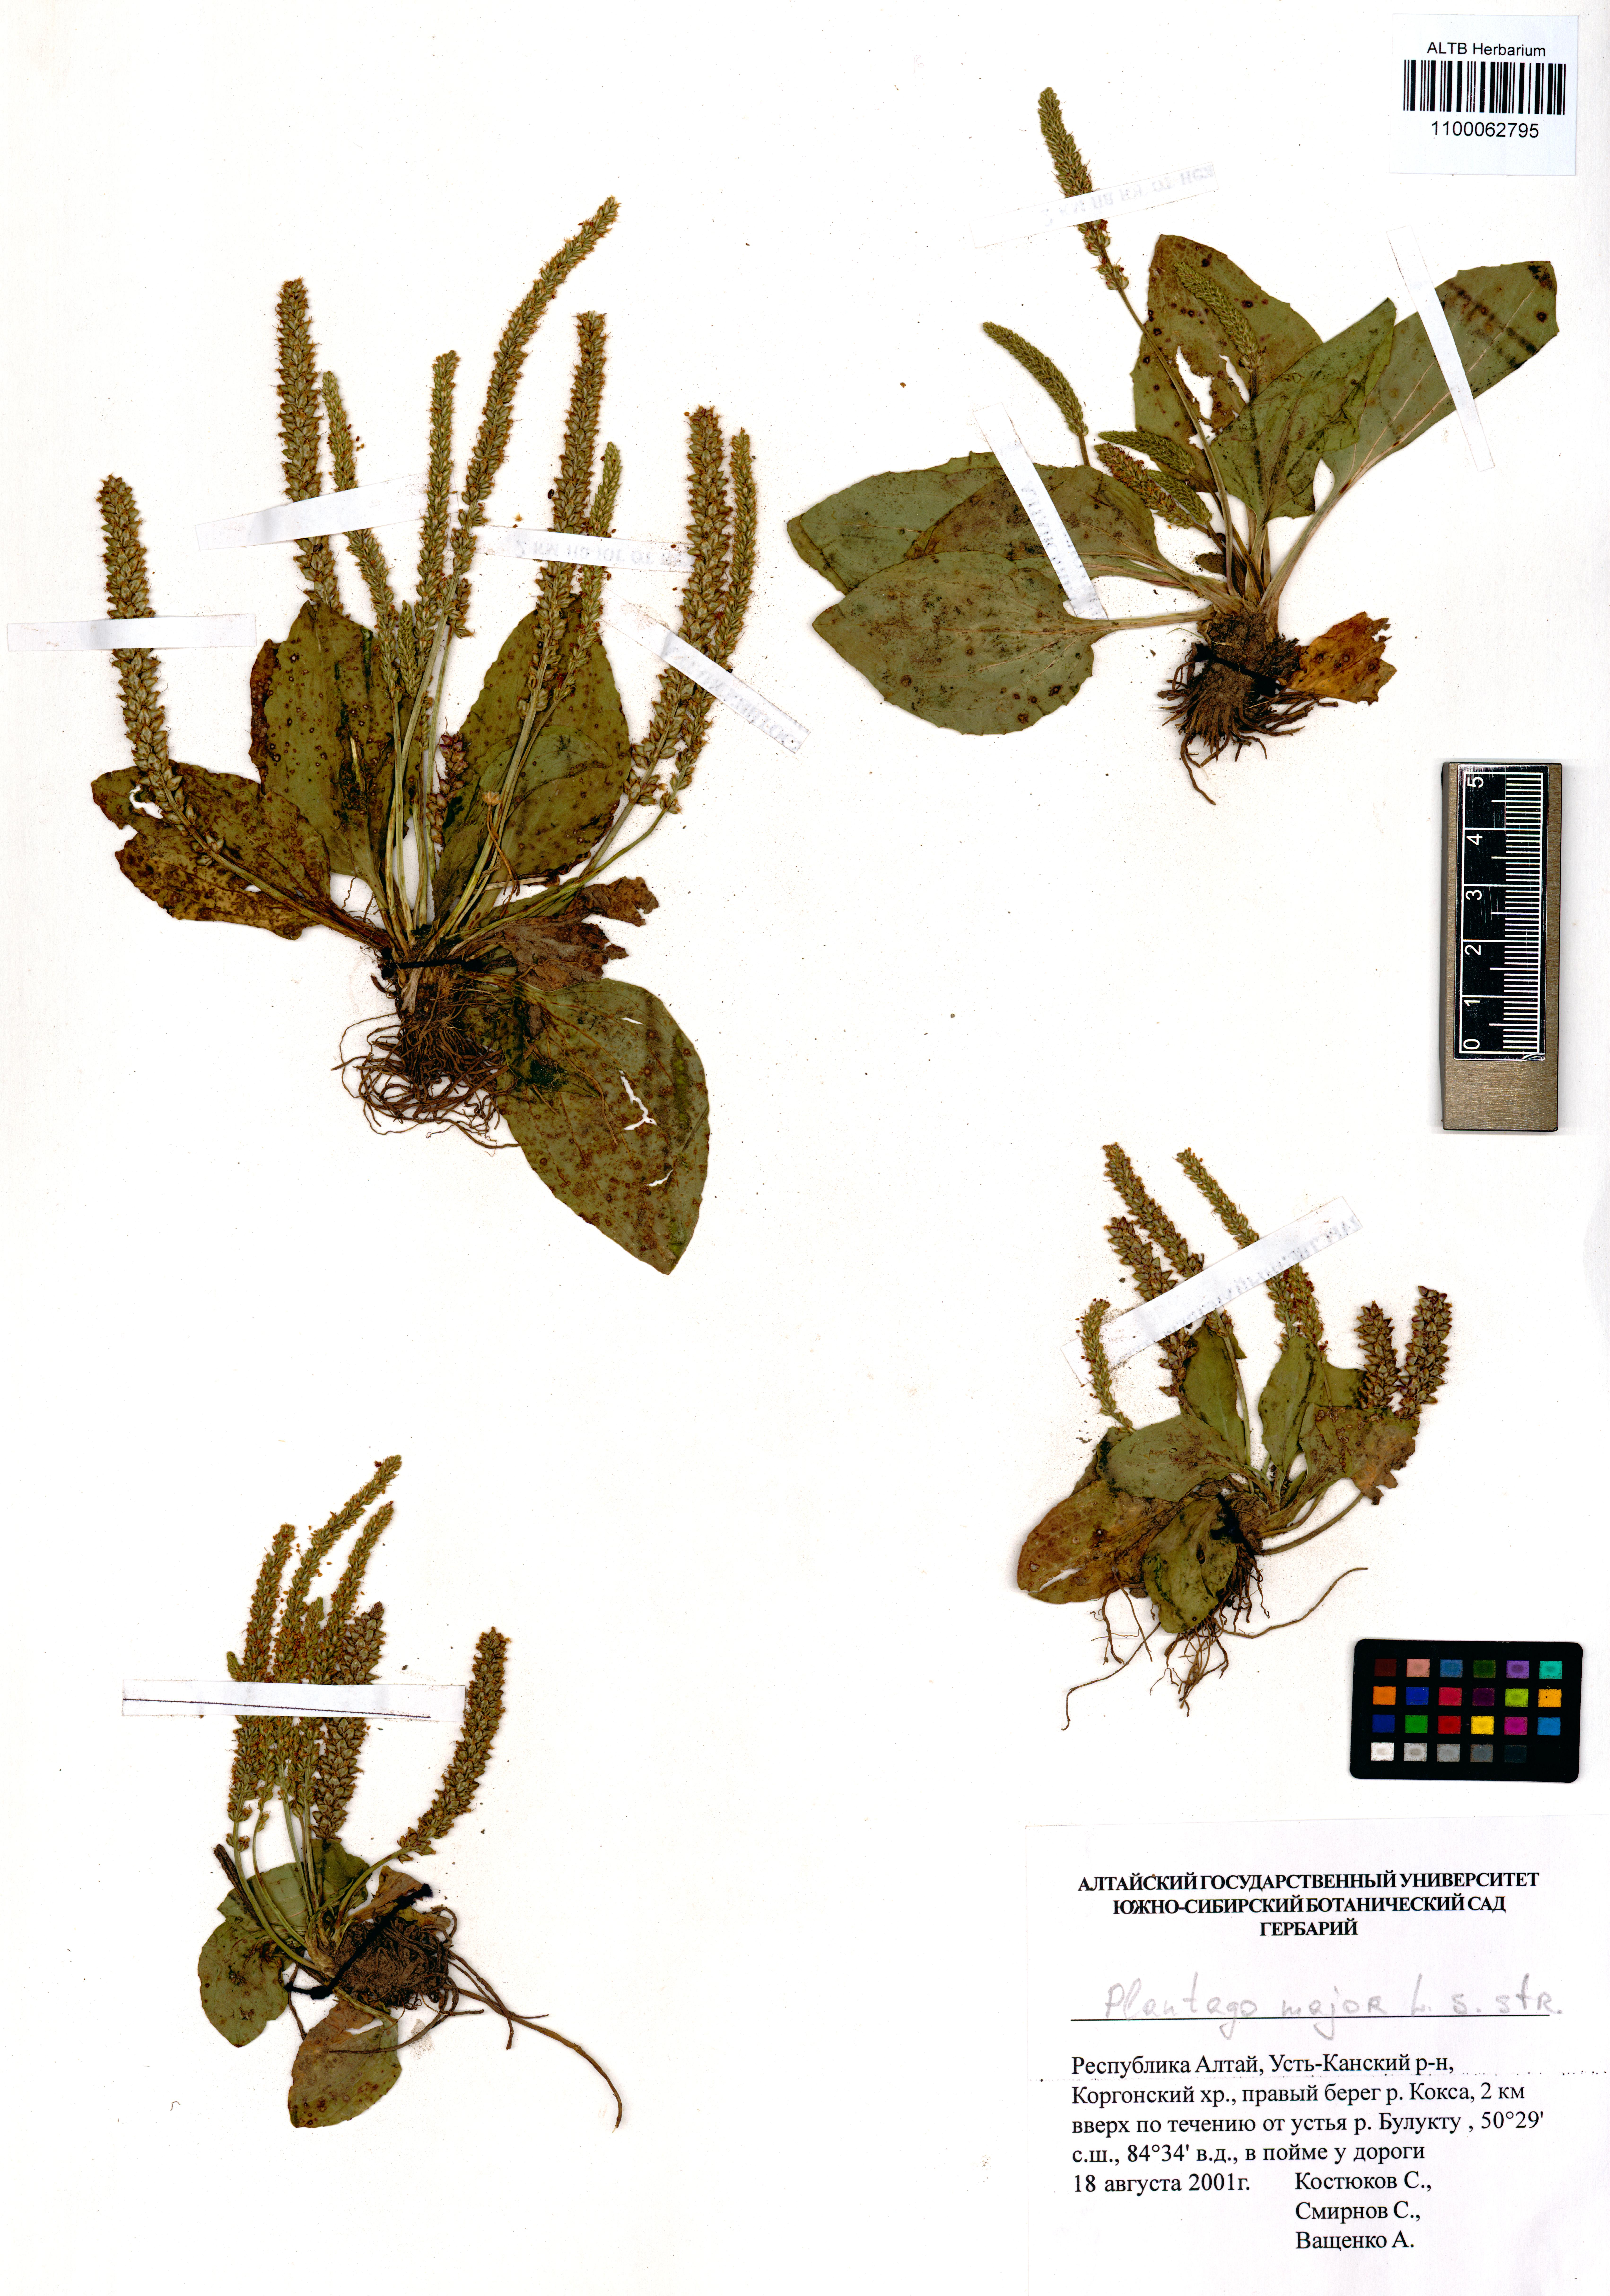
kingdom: Plantae
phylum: Tracheophyta
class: Magnoliopsida
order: Lamiales
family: Plantaginaceae
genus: Plantago
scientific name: Plantago major
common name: Common plantain
